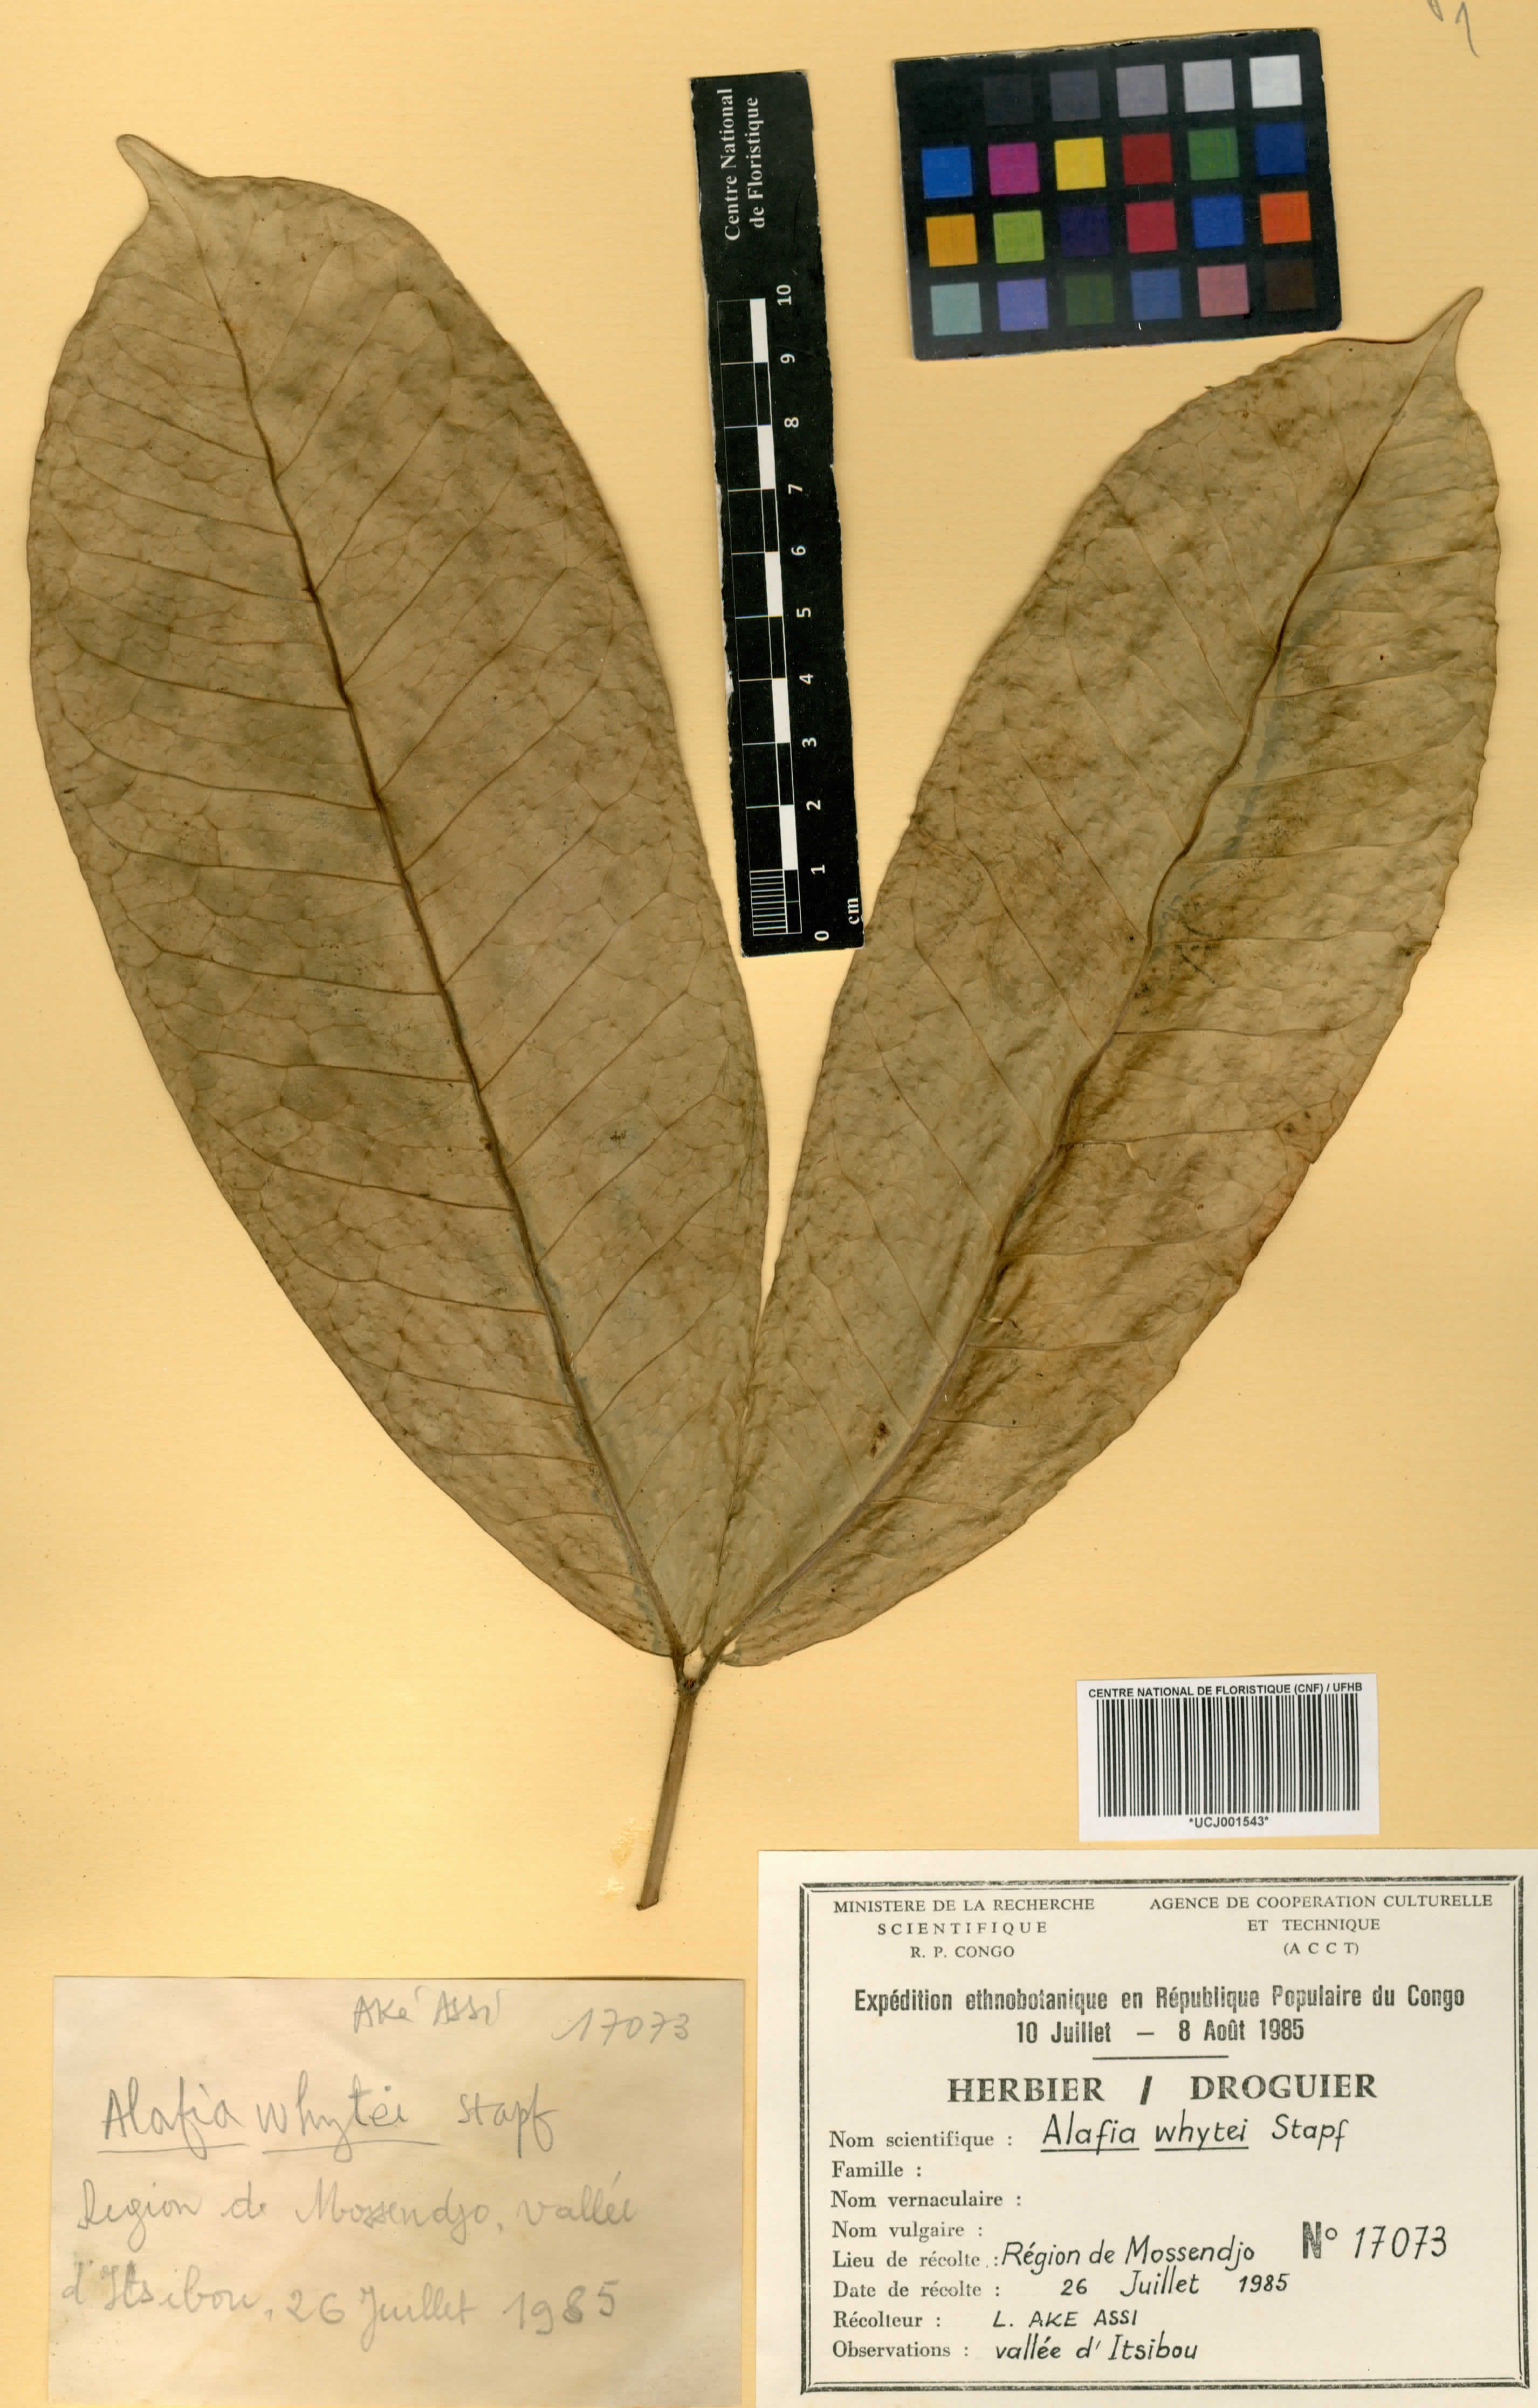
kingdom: Plantae
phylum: Tracheophyta
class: Magnoliopsida
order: Gentianales
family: Apocynaceae
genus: Alafia
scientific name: Alafia whytei
